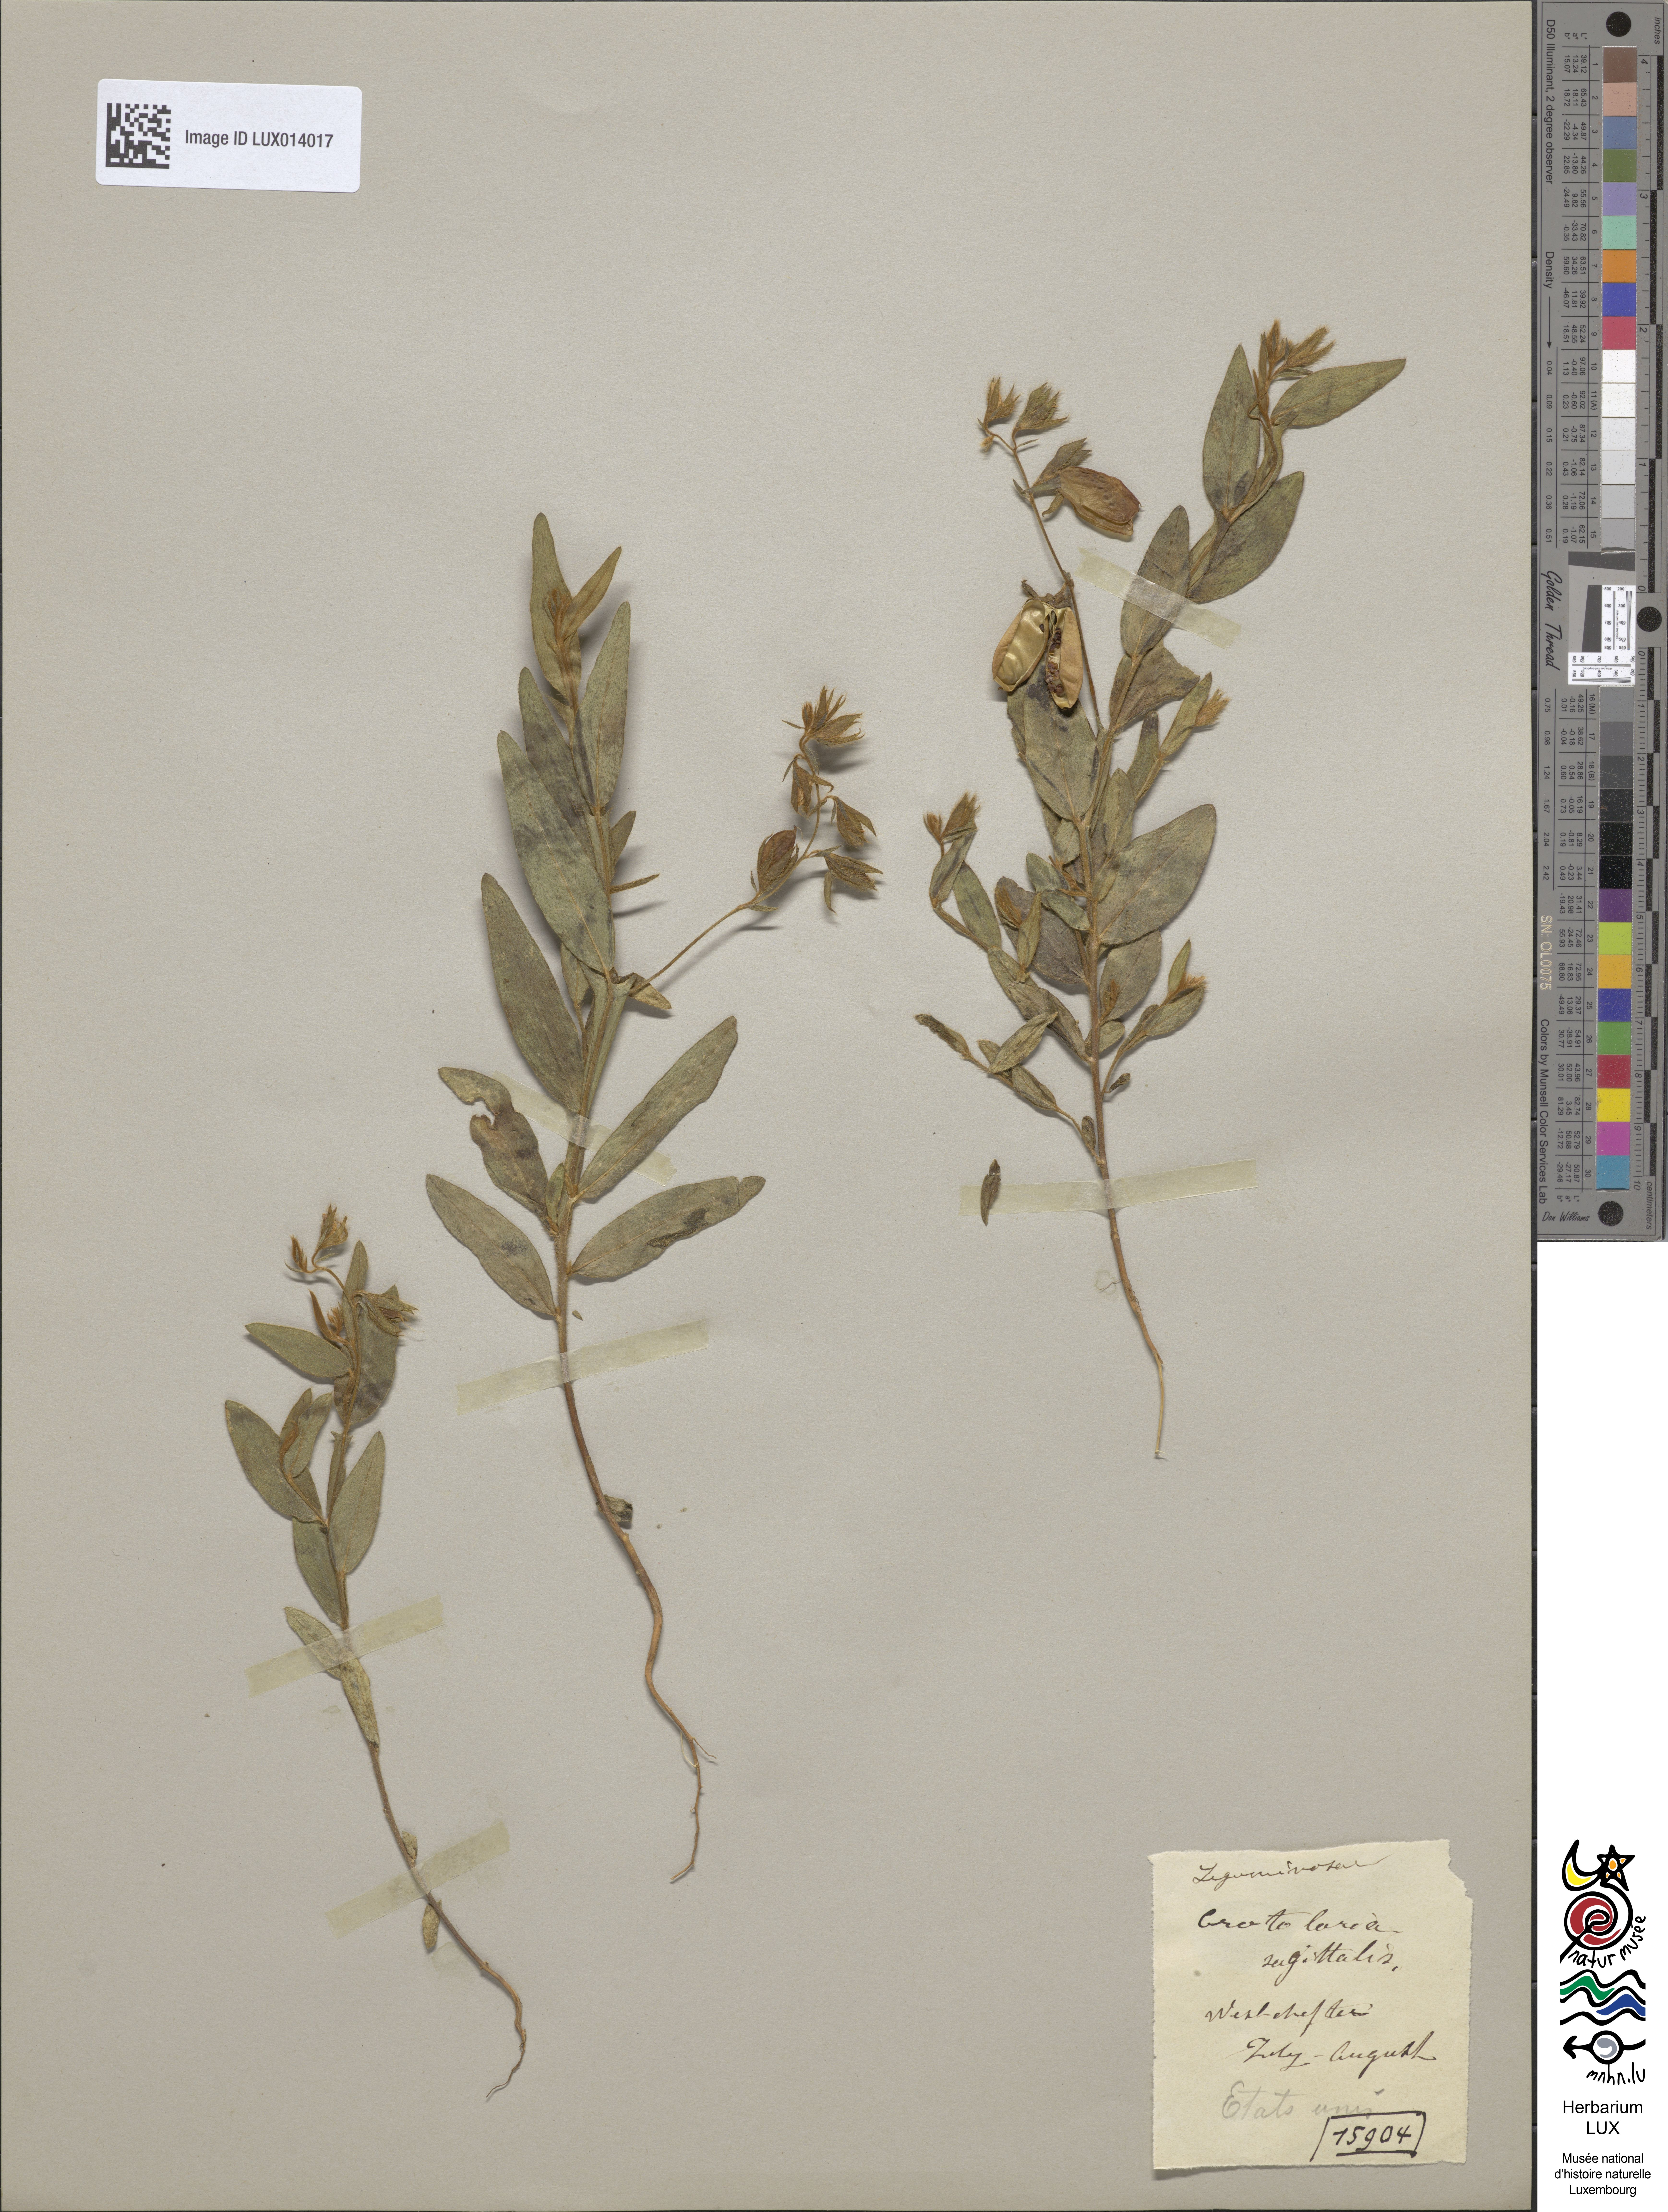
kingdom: Plantae
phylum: Tracheophyta
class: Magnoliopsida
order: Fabales
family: Fabaceae
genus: Crotalaria
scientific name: Crotalaria sagittalis
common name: Arrowhead rattlebox
